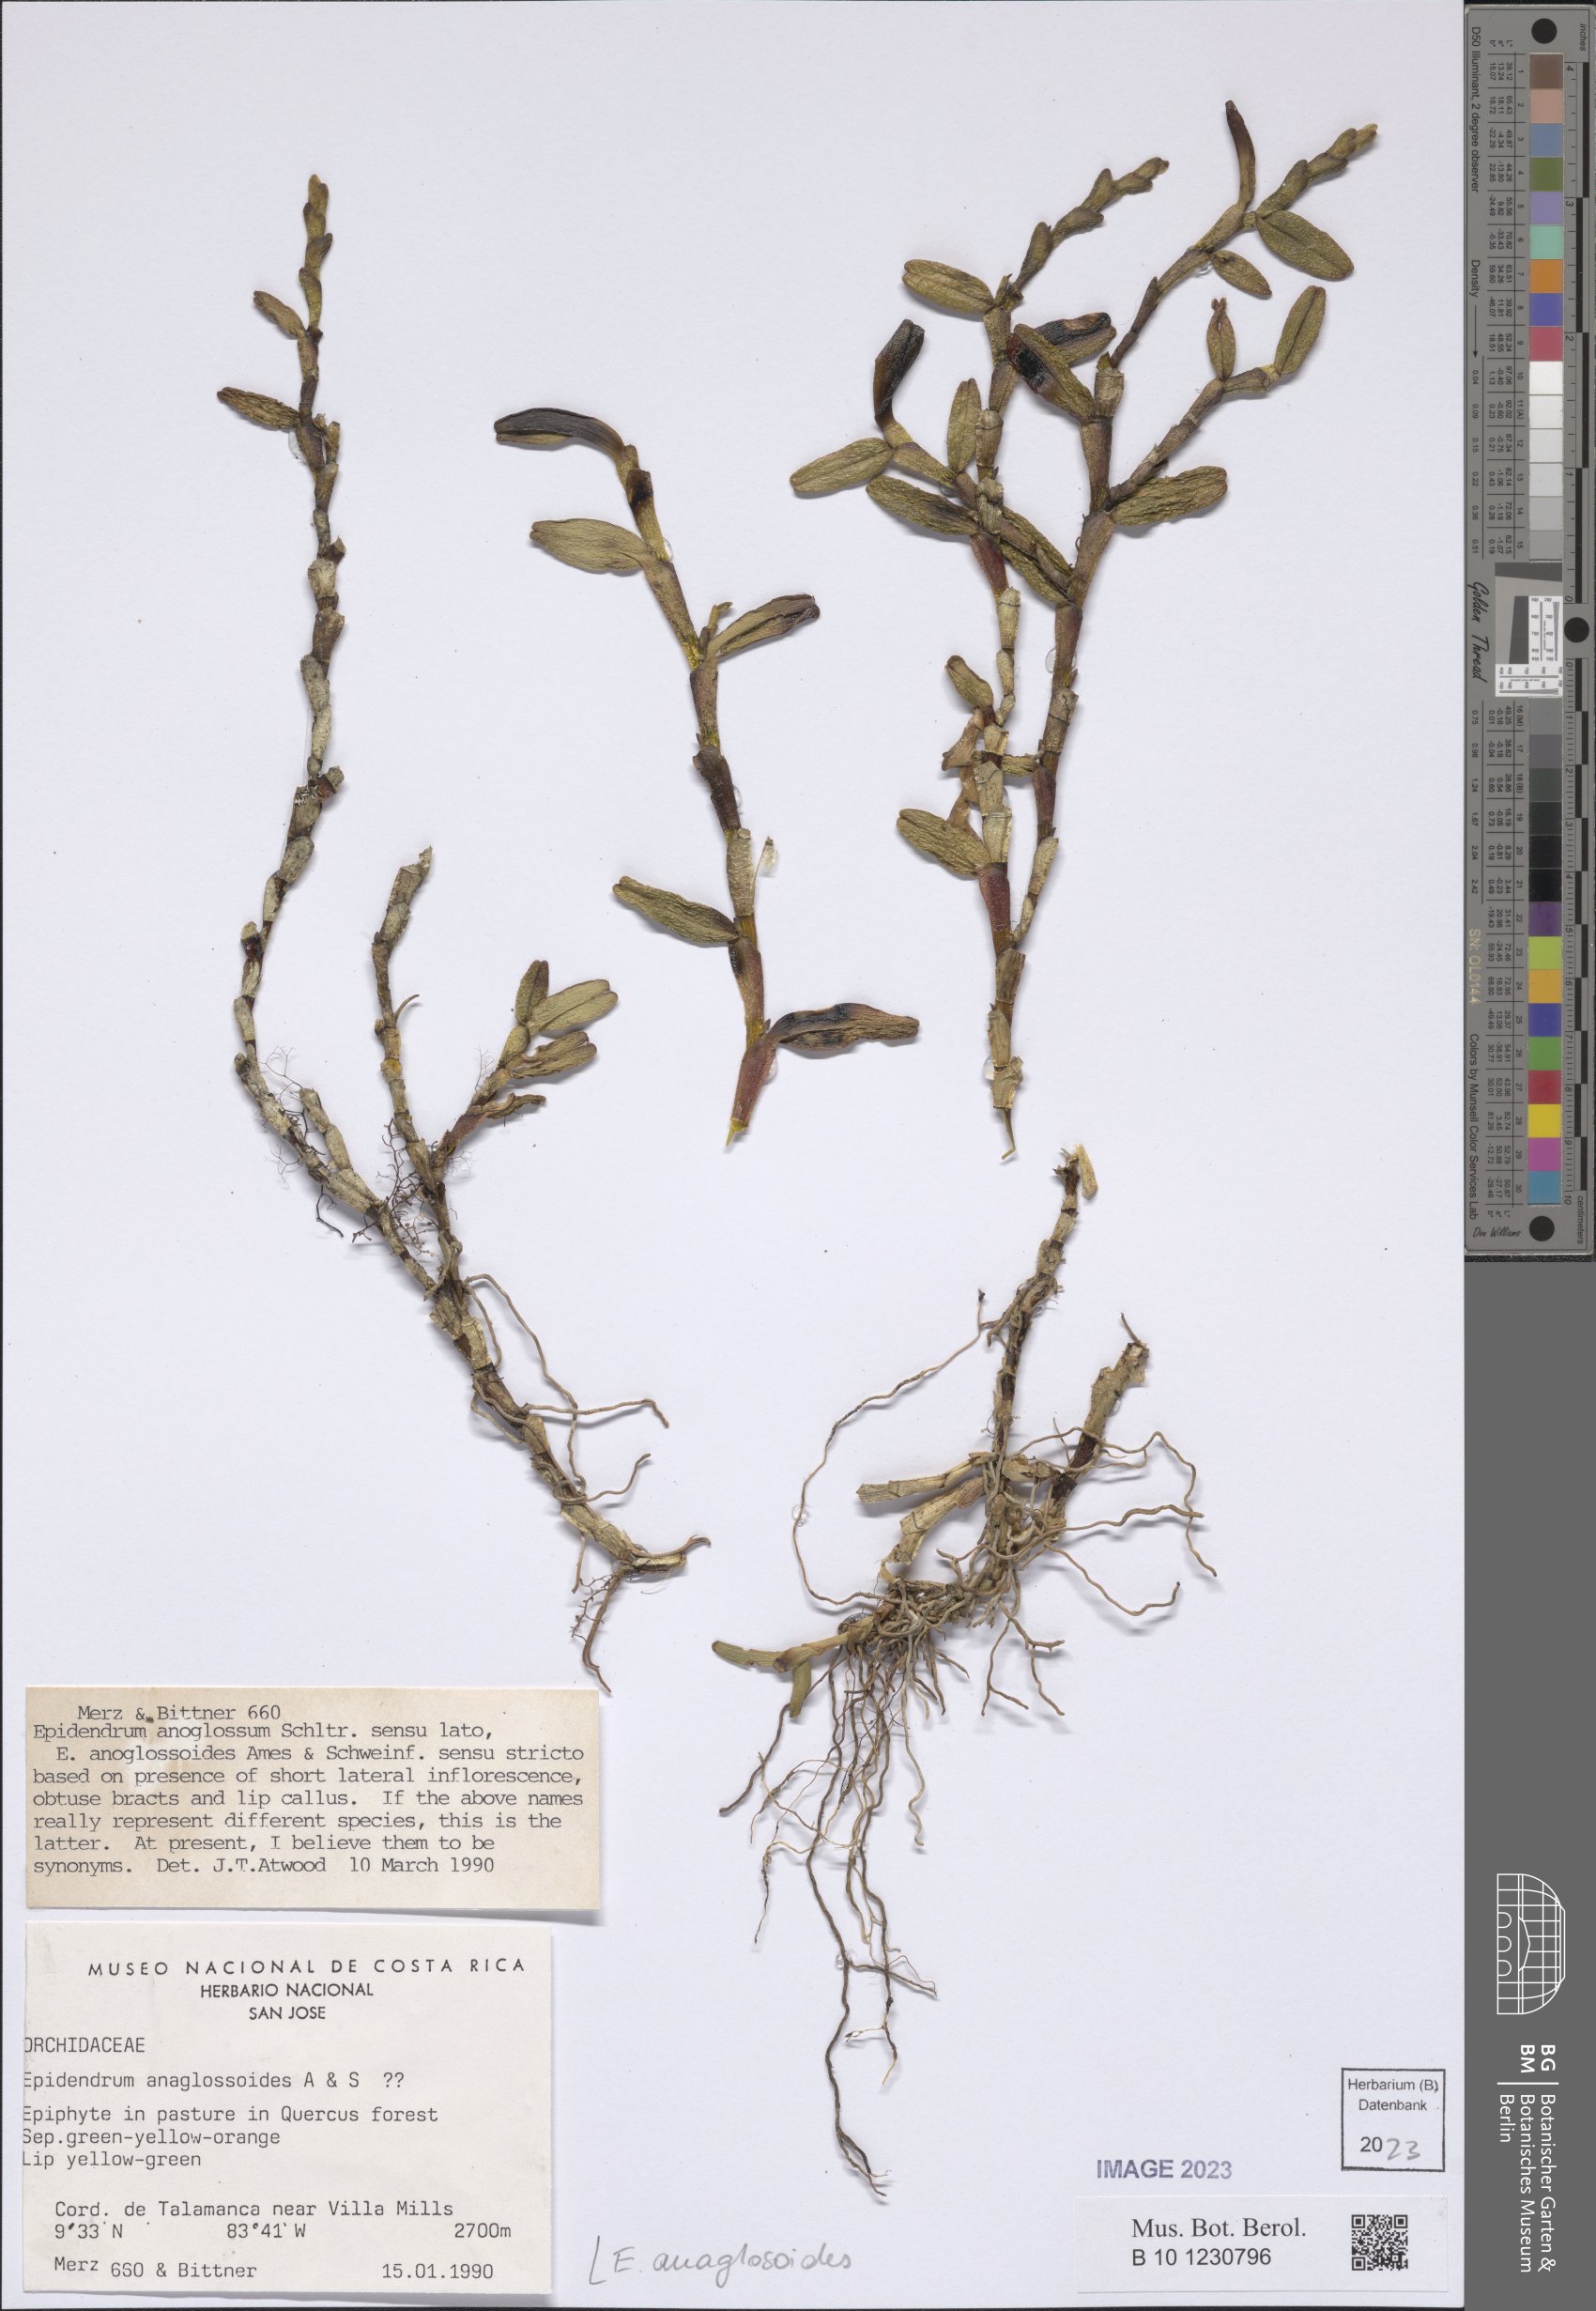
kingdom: Plantae
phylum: Tracheophyta
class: Liliopsida
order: Asparagales
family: Orchidaceae
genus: Epidendrum
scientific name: Epidendrum anaglosoides
